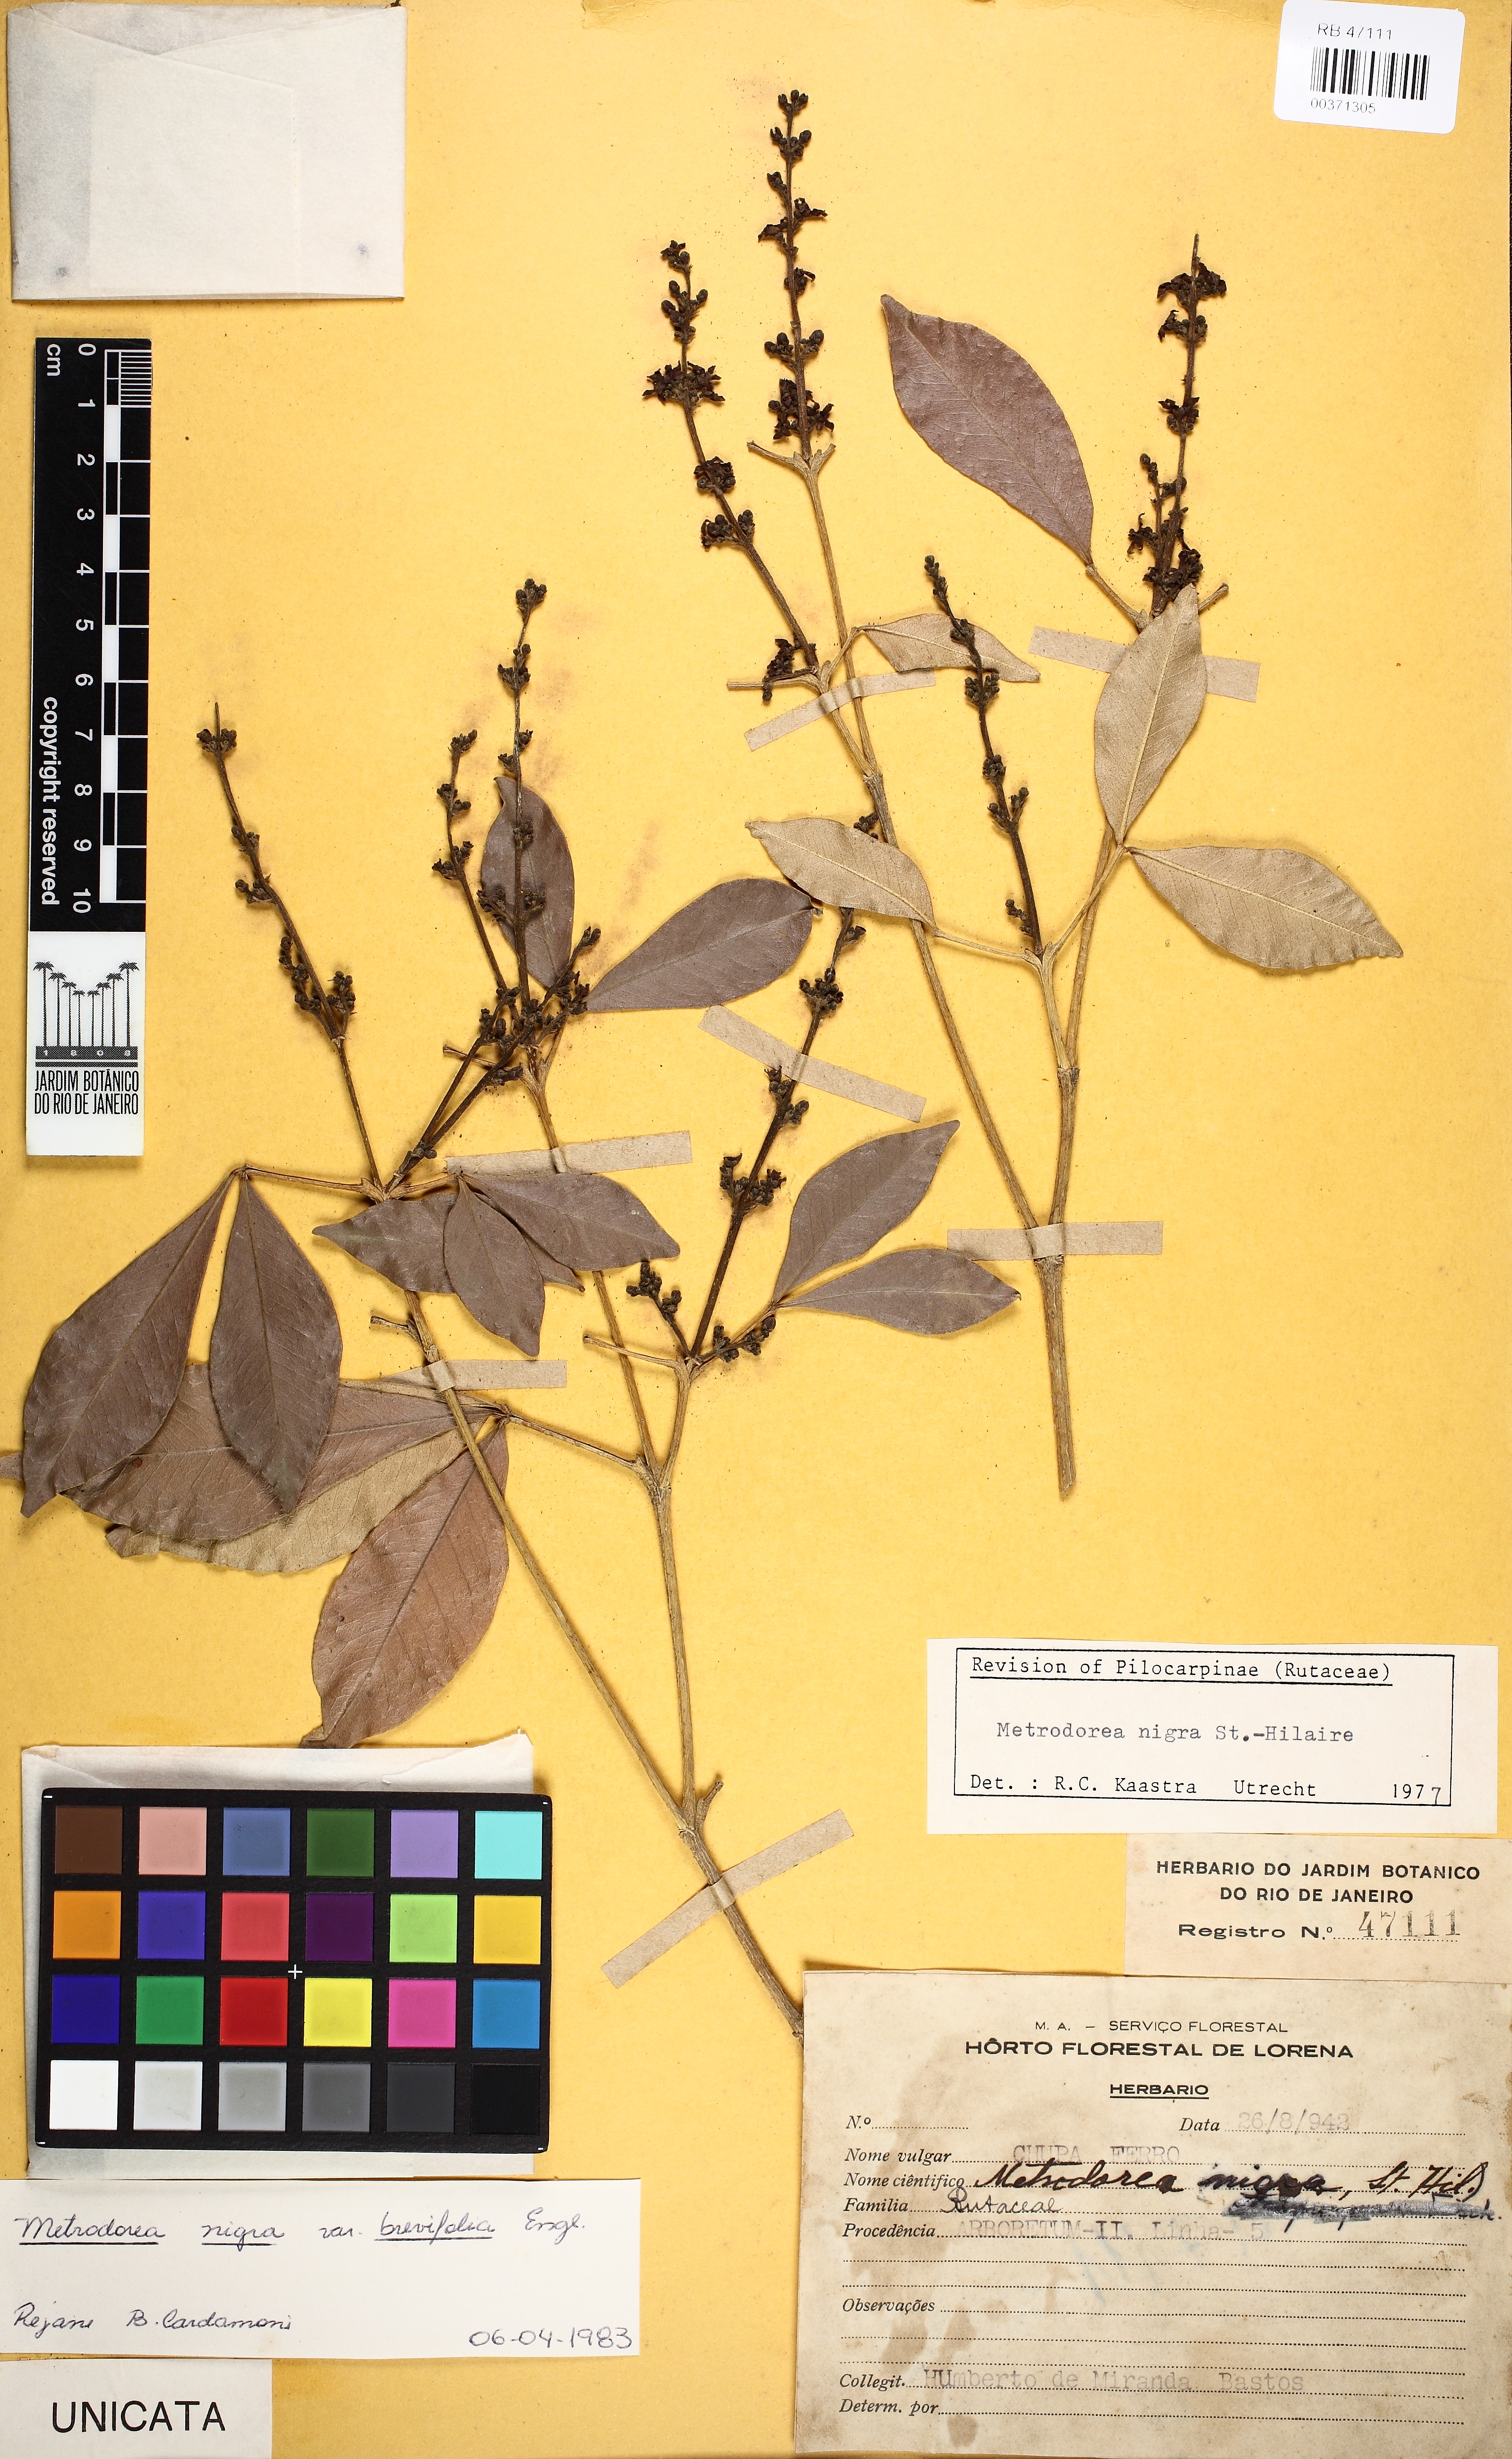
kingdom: Plantae
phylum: Tracheophyta
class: Magnoliopsida
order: Sapindales
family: Rutaceae
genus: Metrodorea
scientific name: Metrodorea nigra
